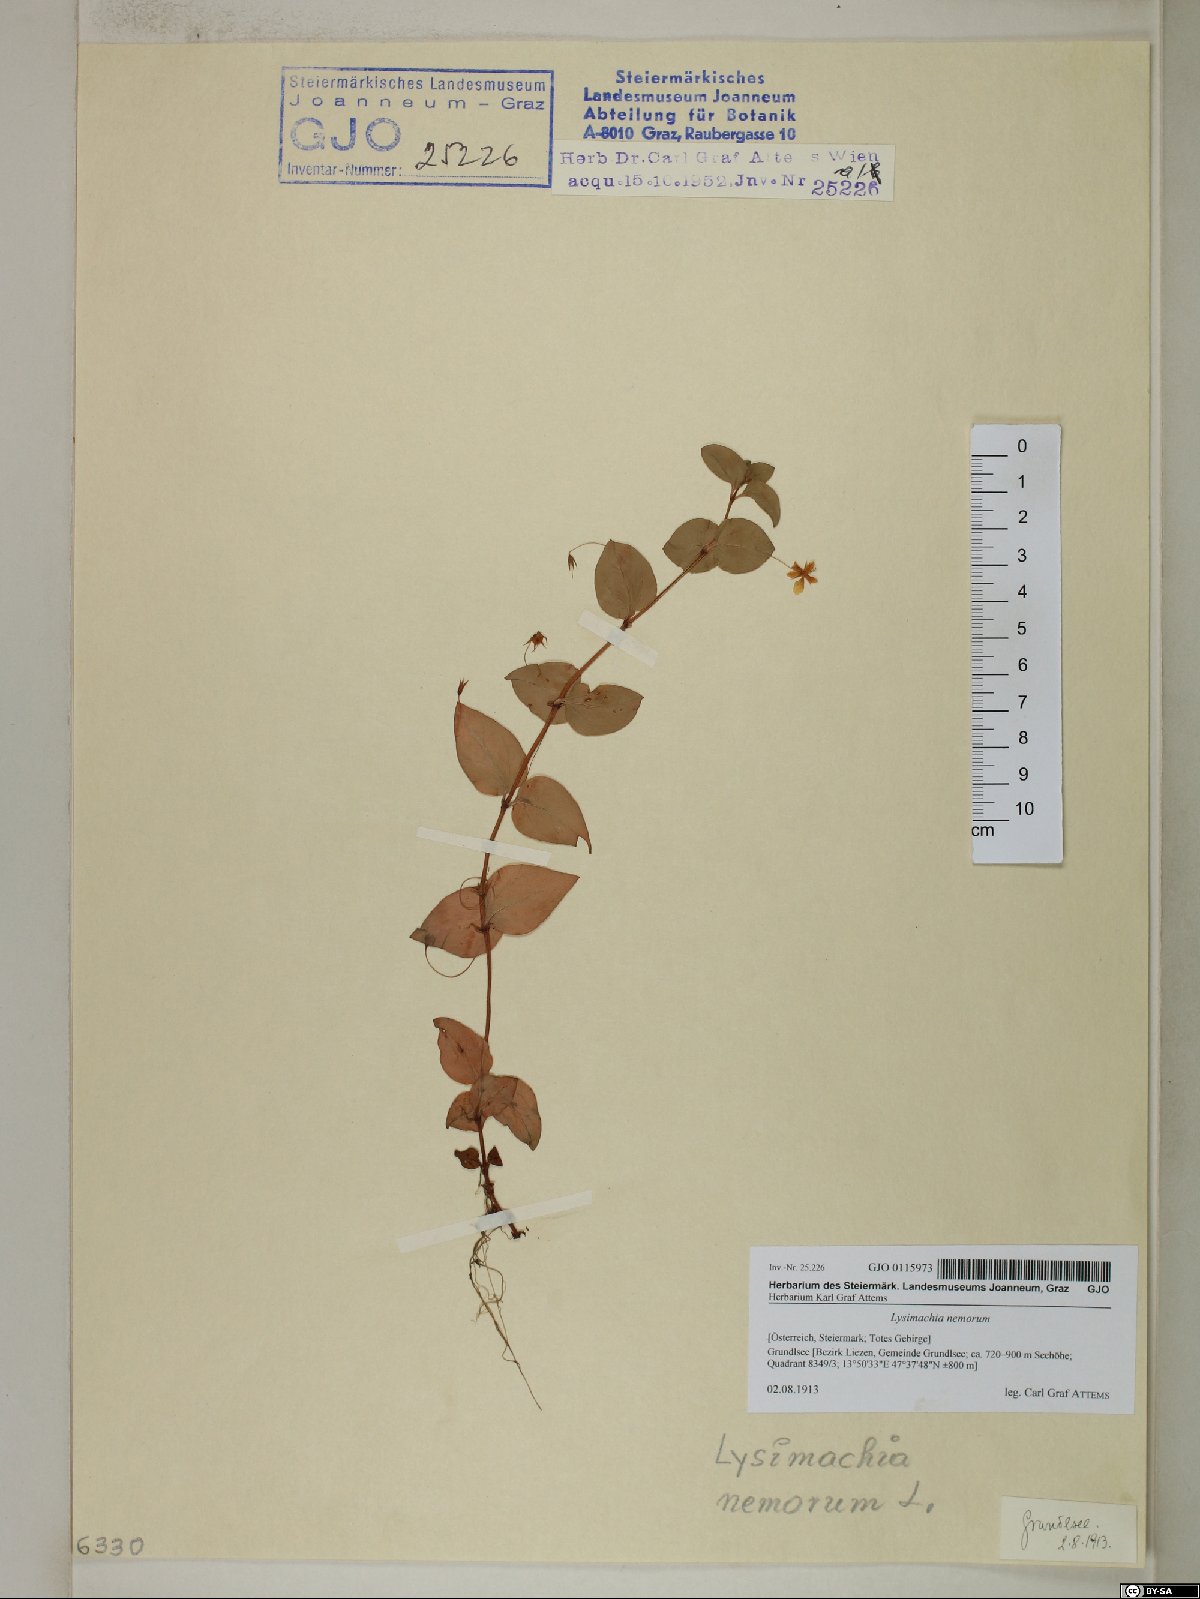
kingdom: Plantae
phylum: Tracheophyta
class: Magnoliopsida
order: Ericales
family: Primulaceae
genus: Lysimachia
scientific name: Lysimachia nemorum
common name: Yellow pimpernel
